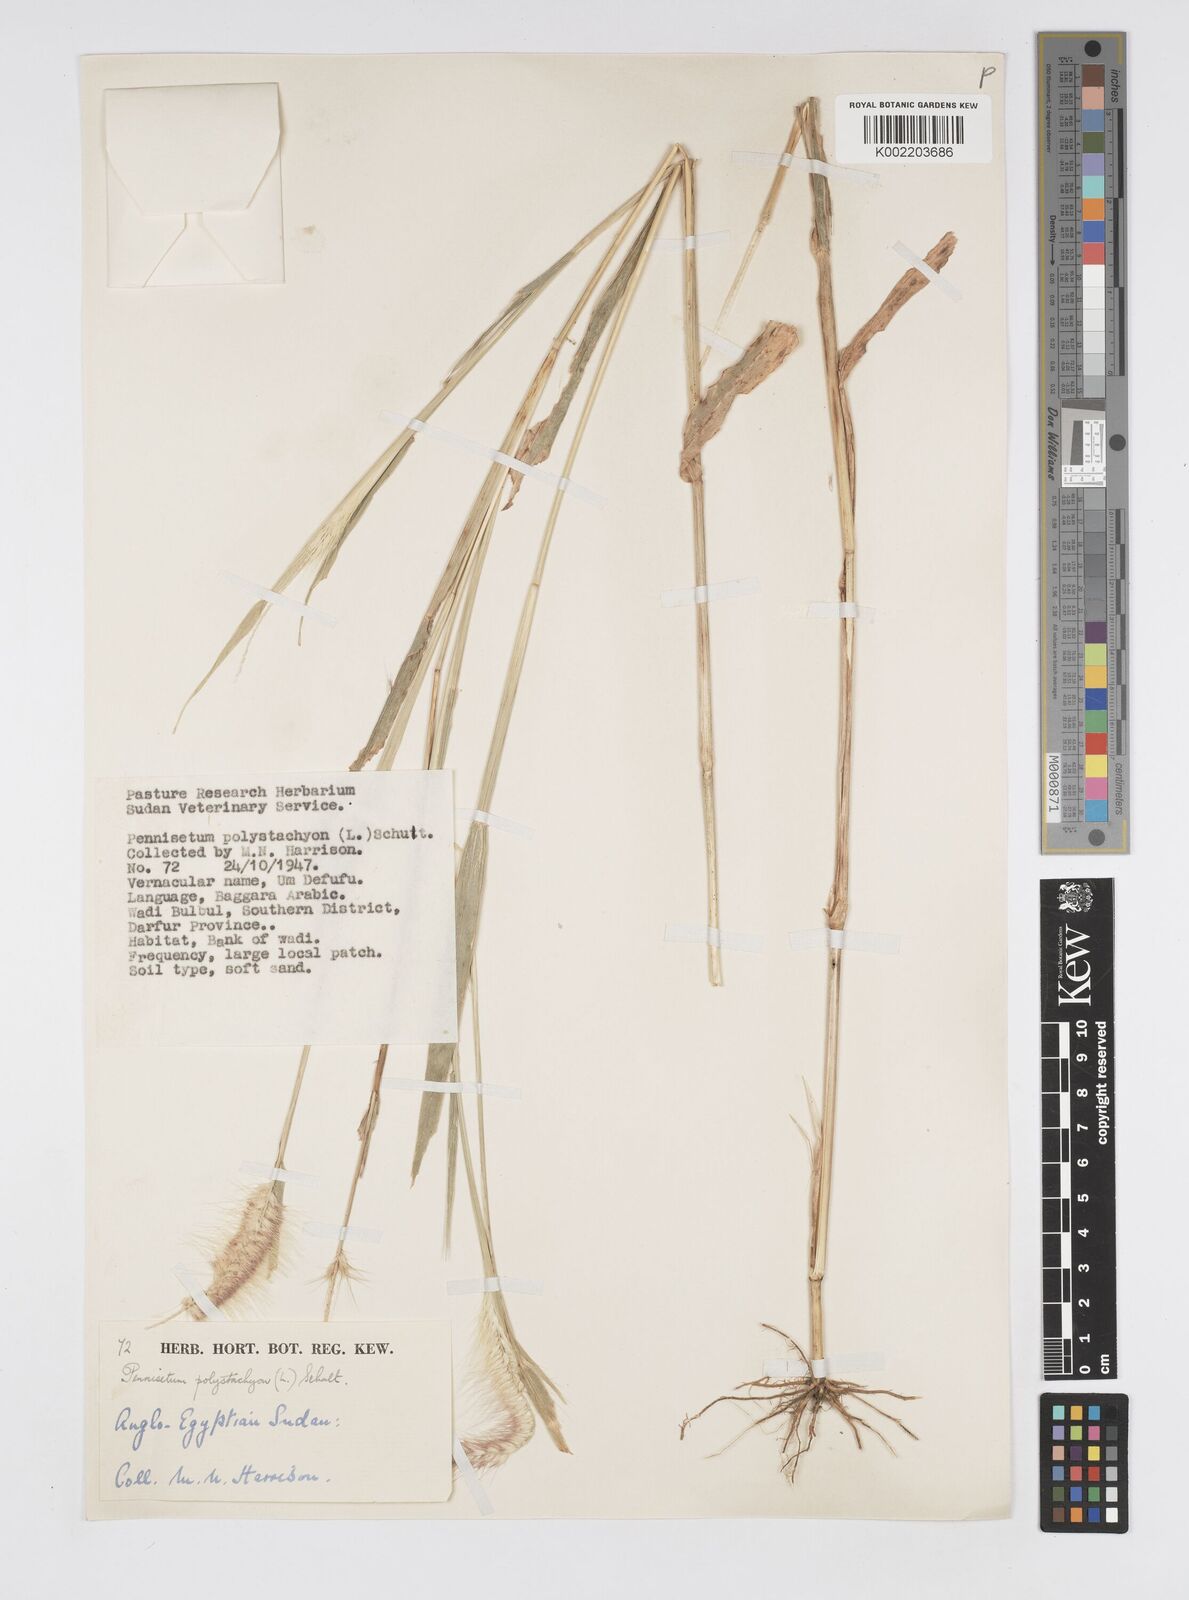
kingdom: Plantae
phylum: Tracheophyta
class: Liliopsida
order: Poales
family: Poaceae
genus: Setaria
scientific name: Setaria parviflora
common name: Knotroot bristle-grass
